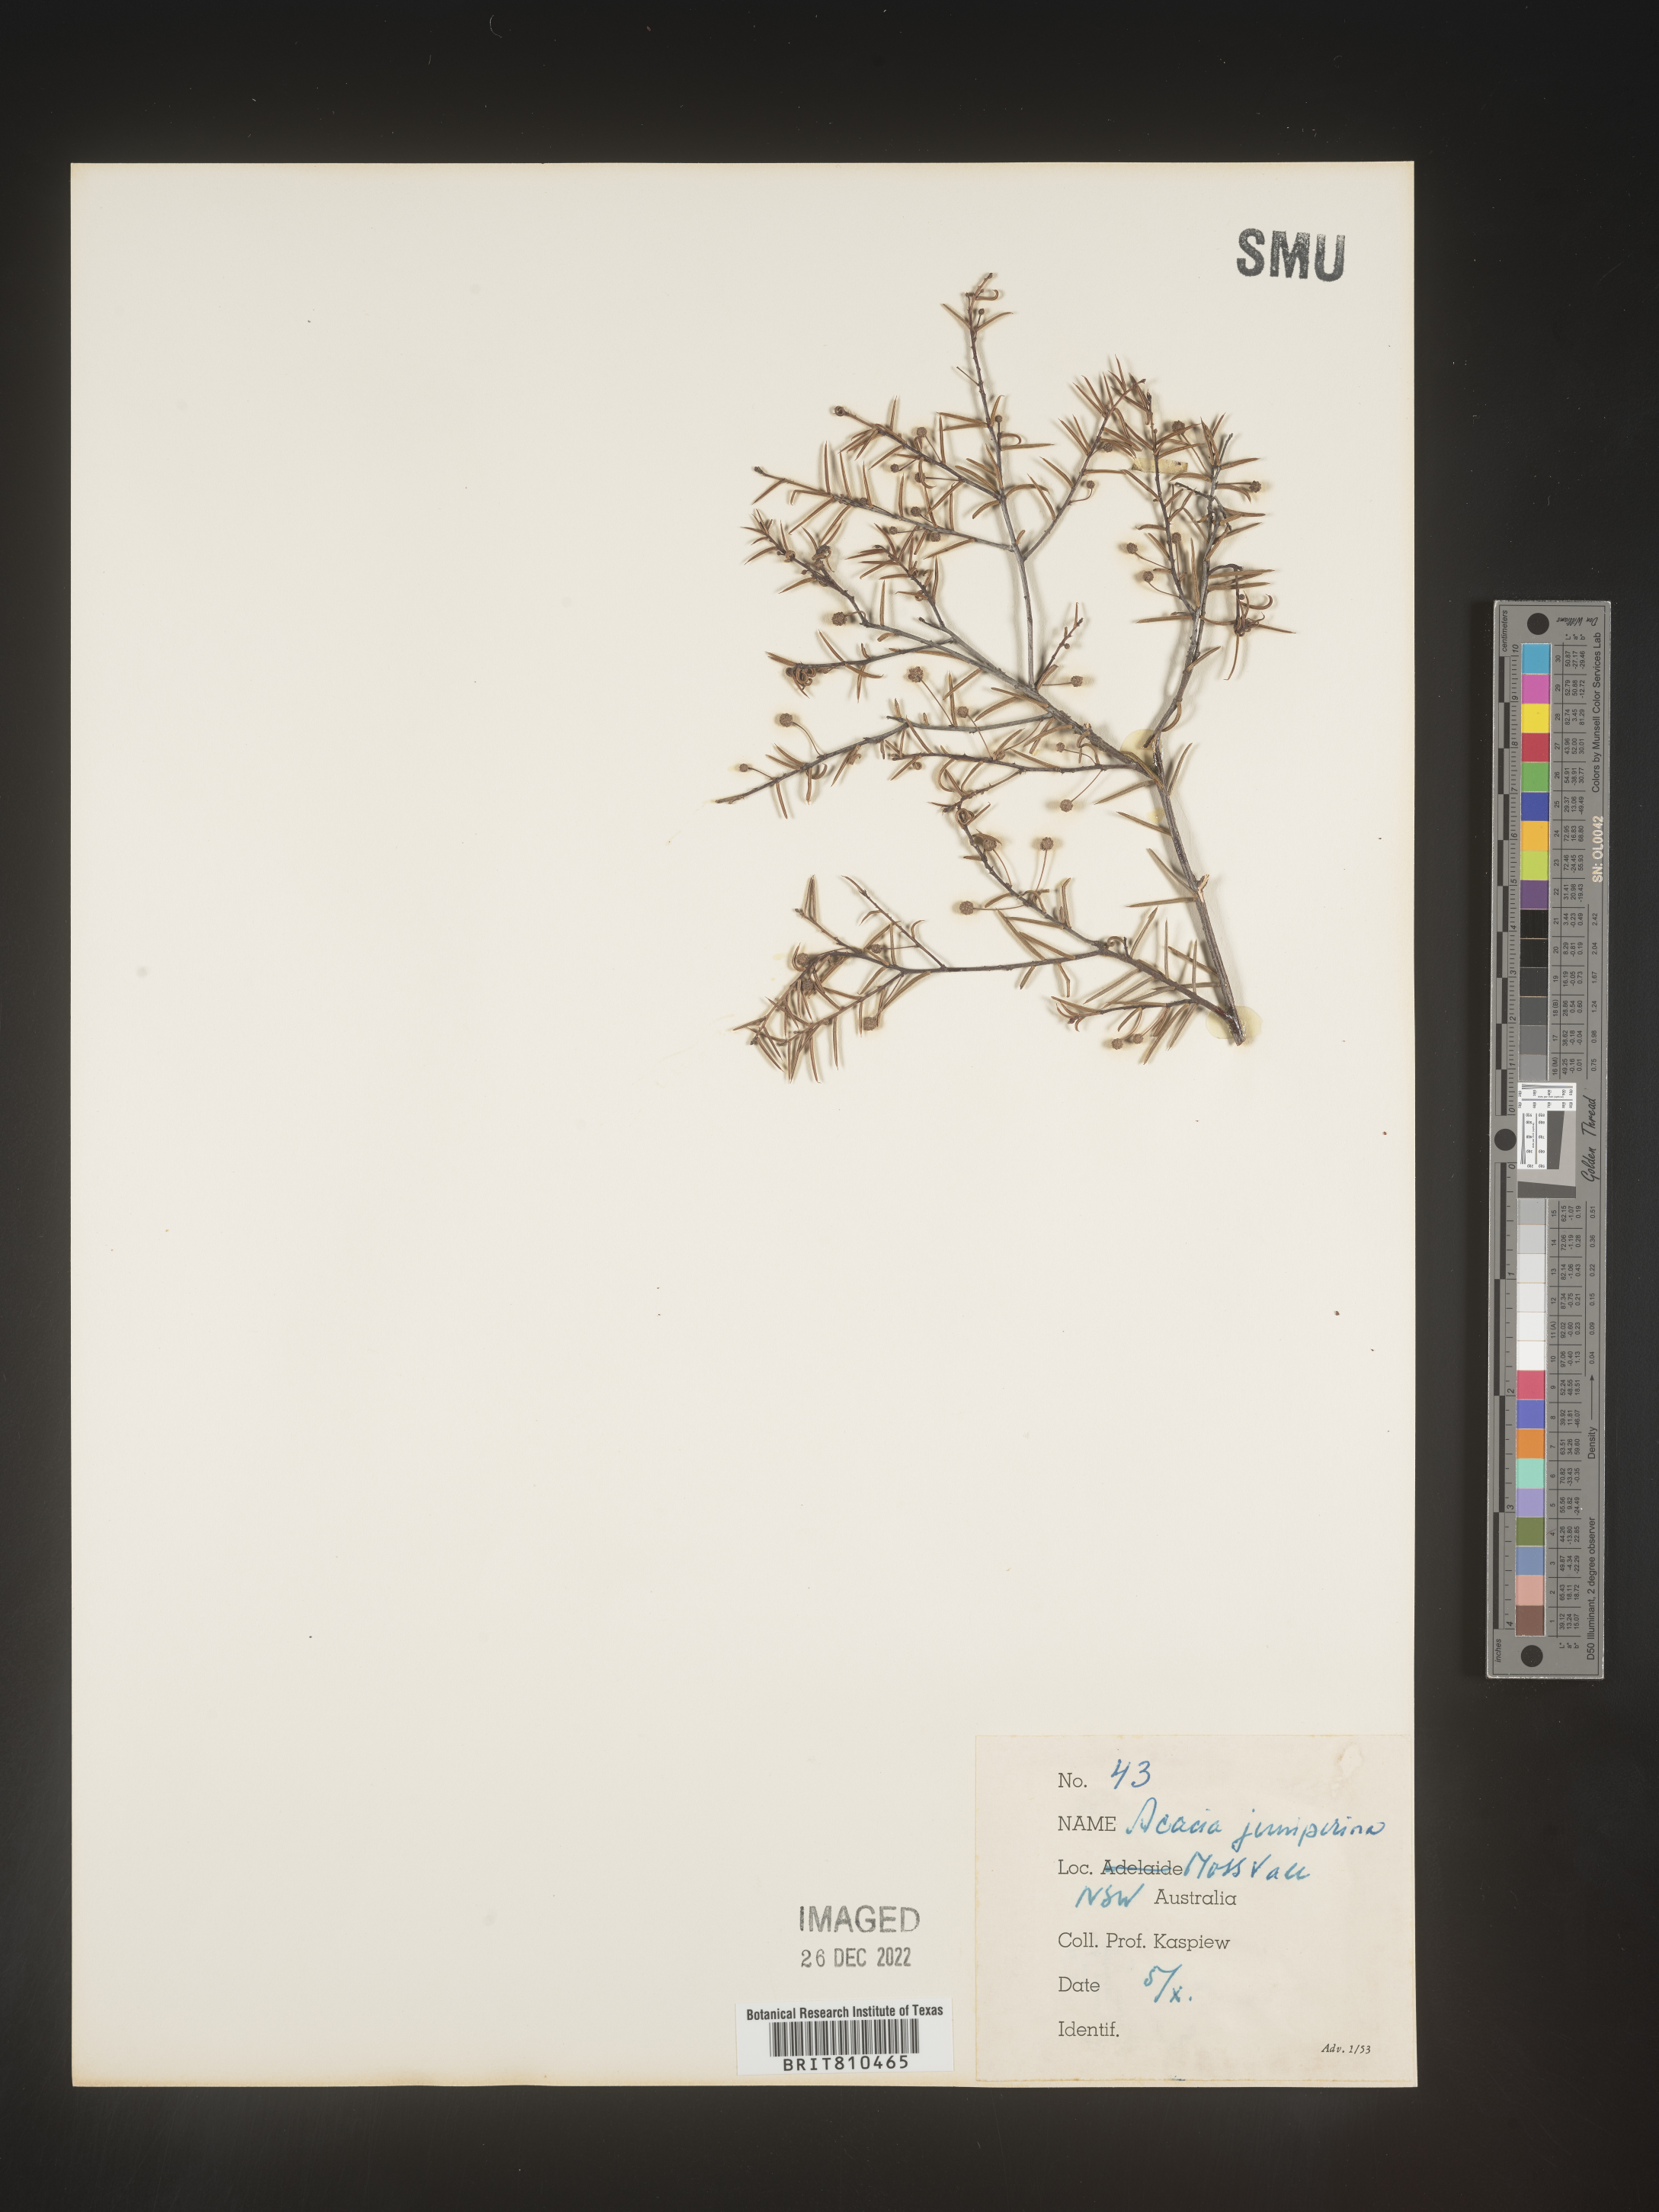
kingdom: Plantae
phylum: Tracheophyta
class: Magnoliopsida
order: Fabales
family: Fabaceae
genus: Acacia
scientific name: Acacia
